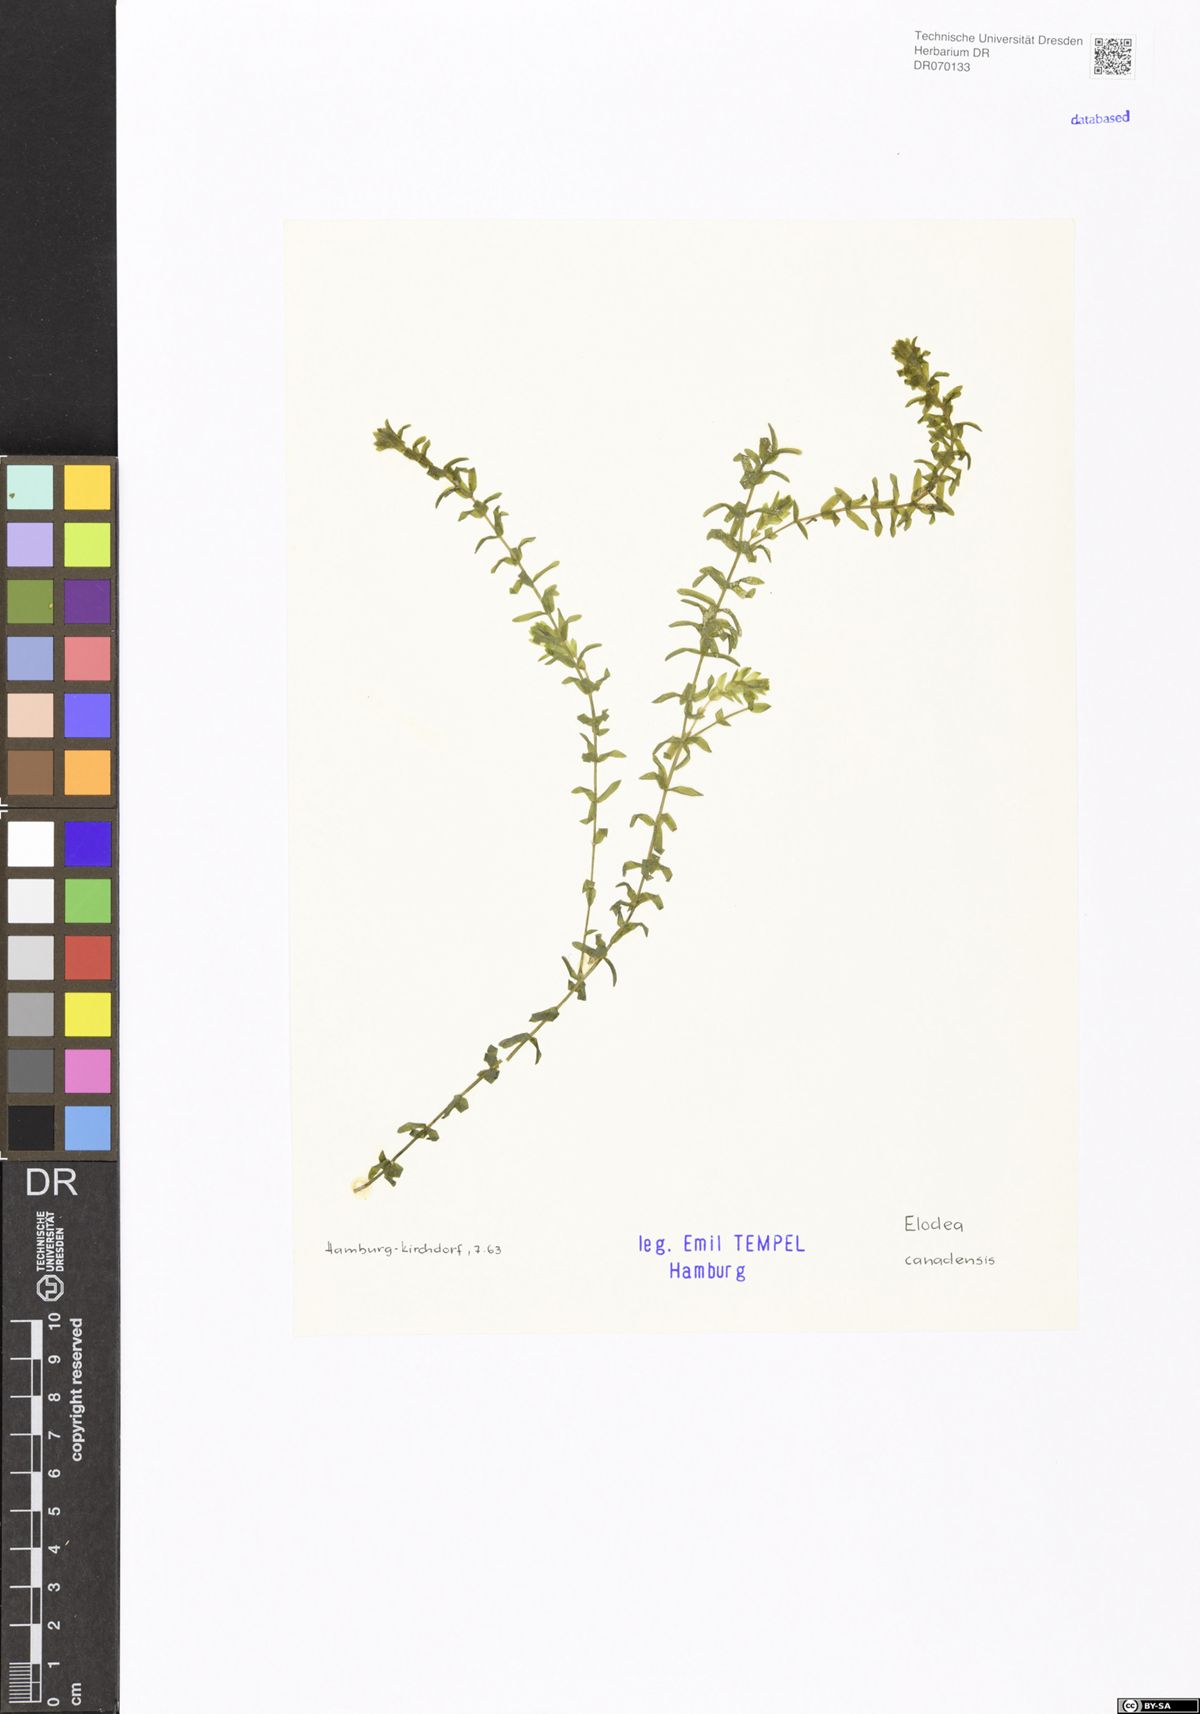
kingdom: Plantae
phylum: Tracheophyta
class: Liliopsida
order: Alismatales
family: Hydrocharitaceae
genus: Elodea
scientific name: Elodea canadensis
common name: Canadian waterweed
